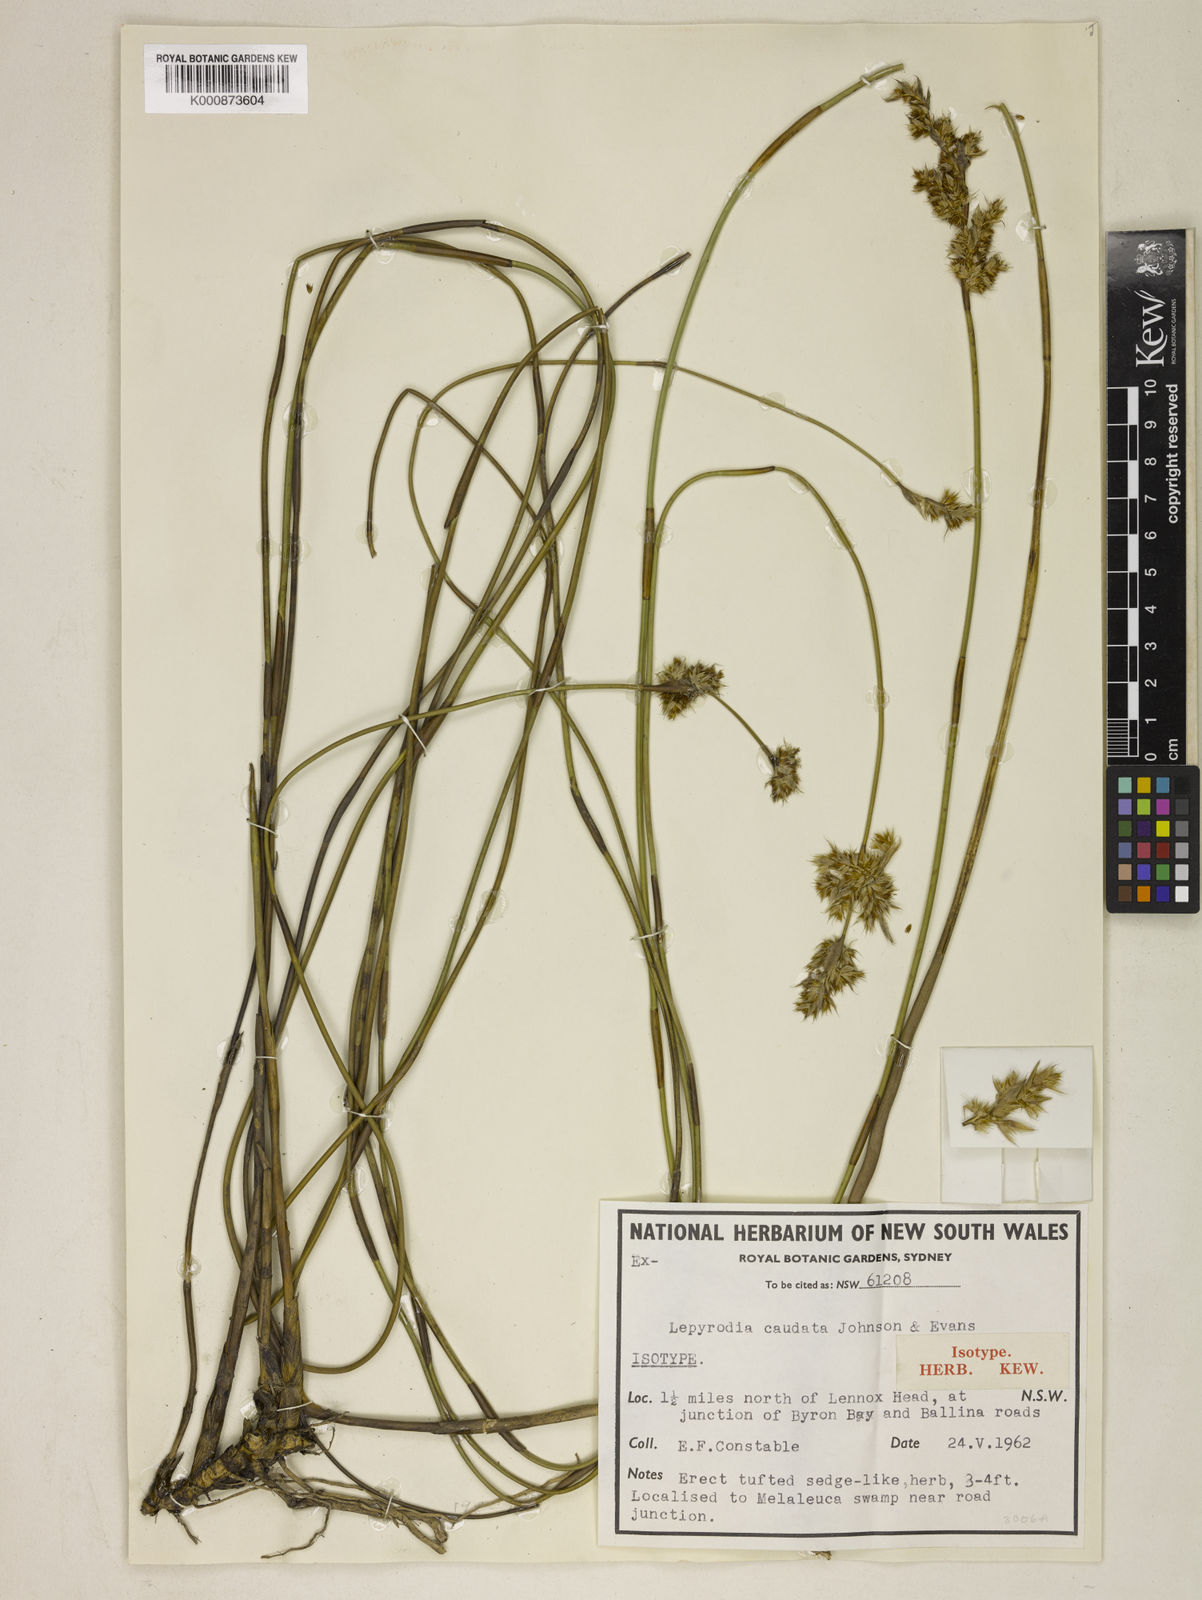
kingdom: Plantae
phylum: Tracheophyta
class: Liliopsida
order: Poales
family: Restionaceae
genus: Sporadanthus
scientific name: Sporadanthus caudatus
